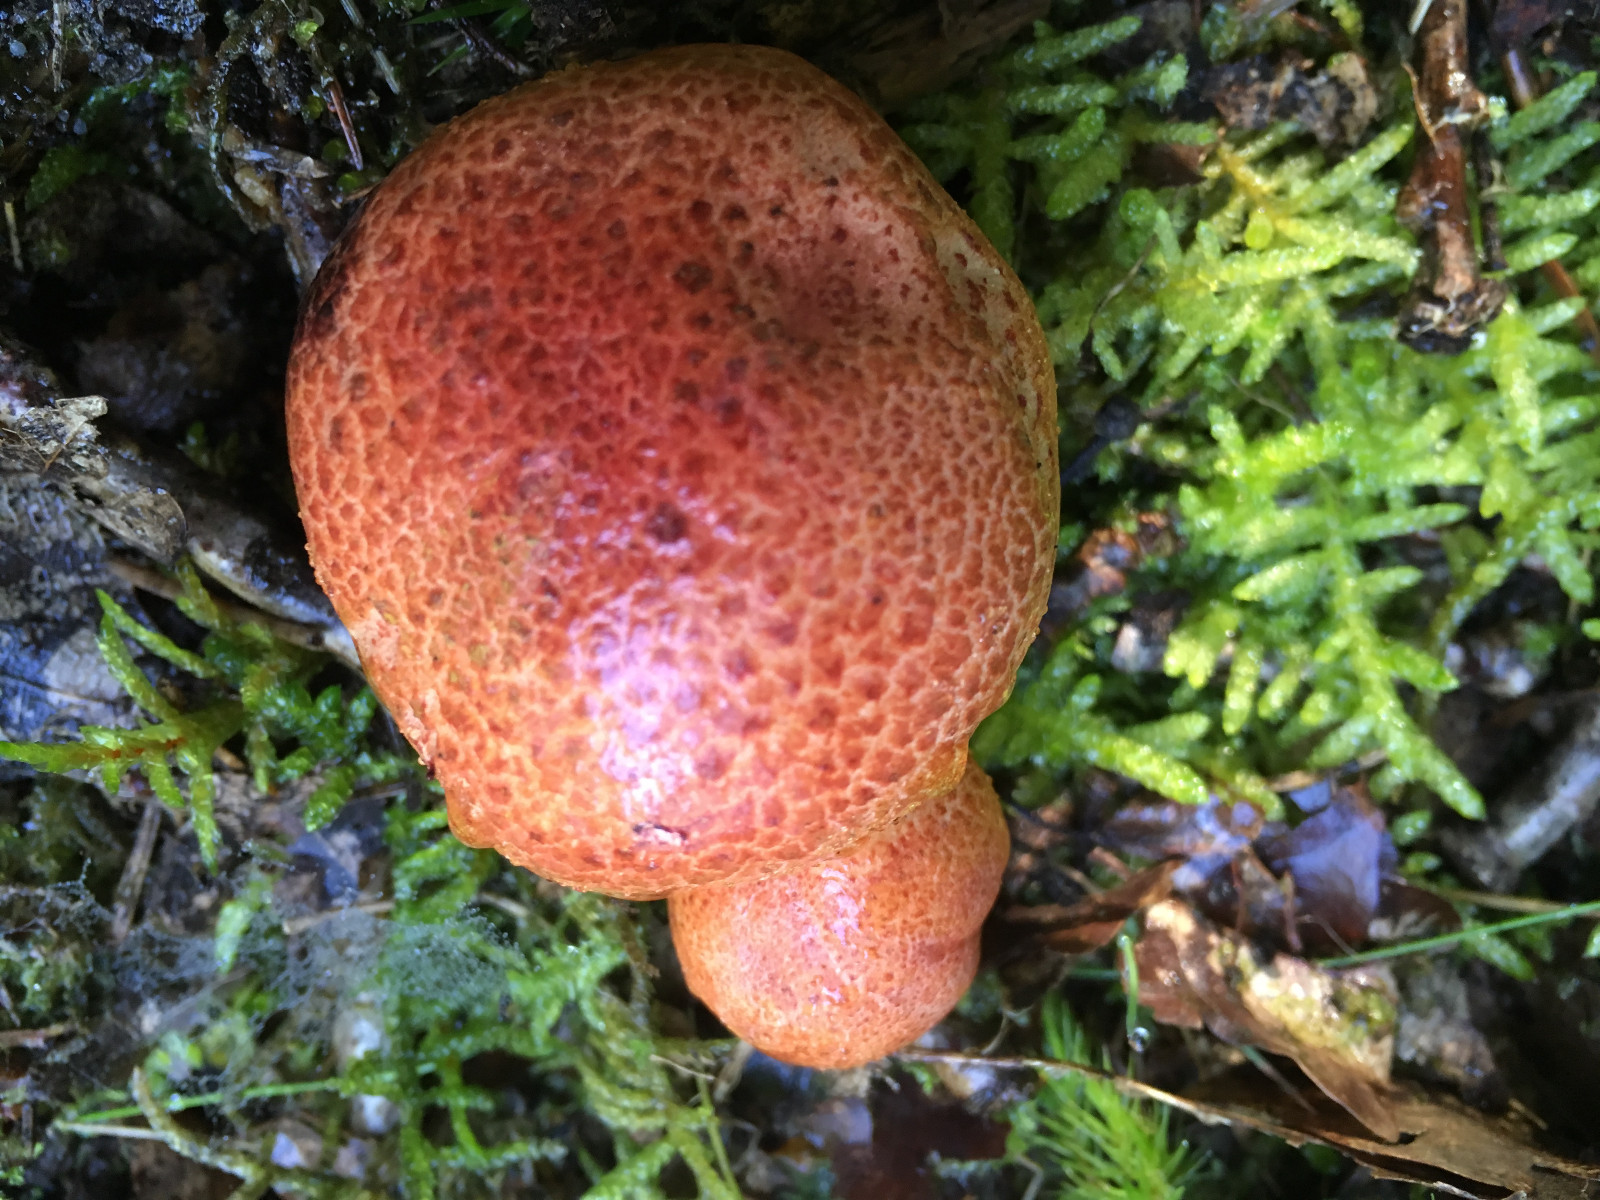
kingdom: Fungi
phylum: Basidiomycota
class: Agaricomycetes
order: Agaricales
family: Cortinariaceae
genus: Cortinarius
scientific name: Cortinarius bolaris
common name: cinnoberskællet slørhat
